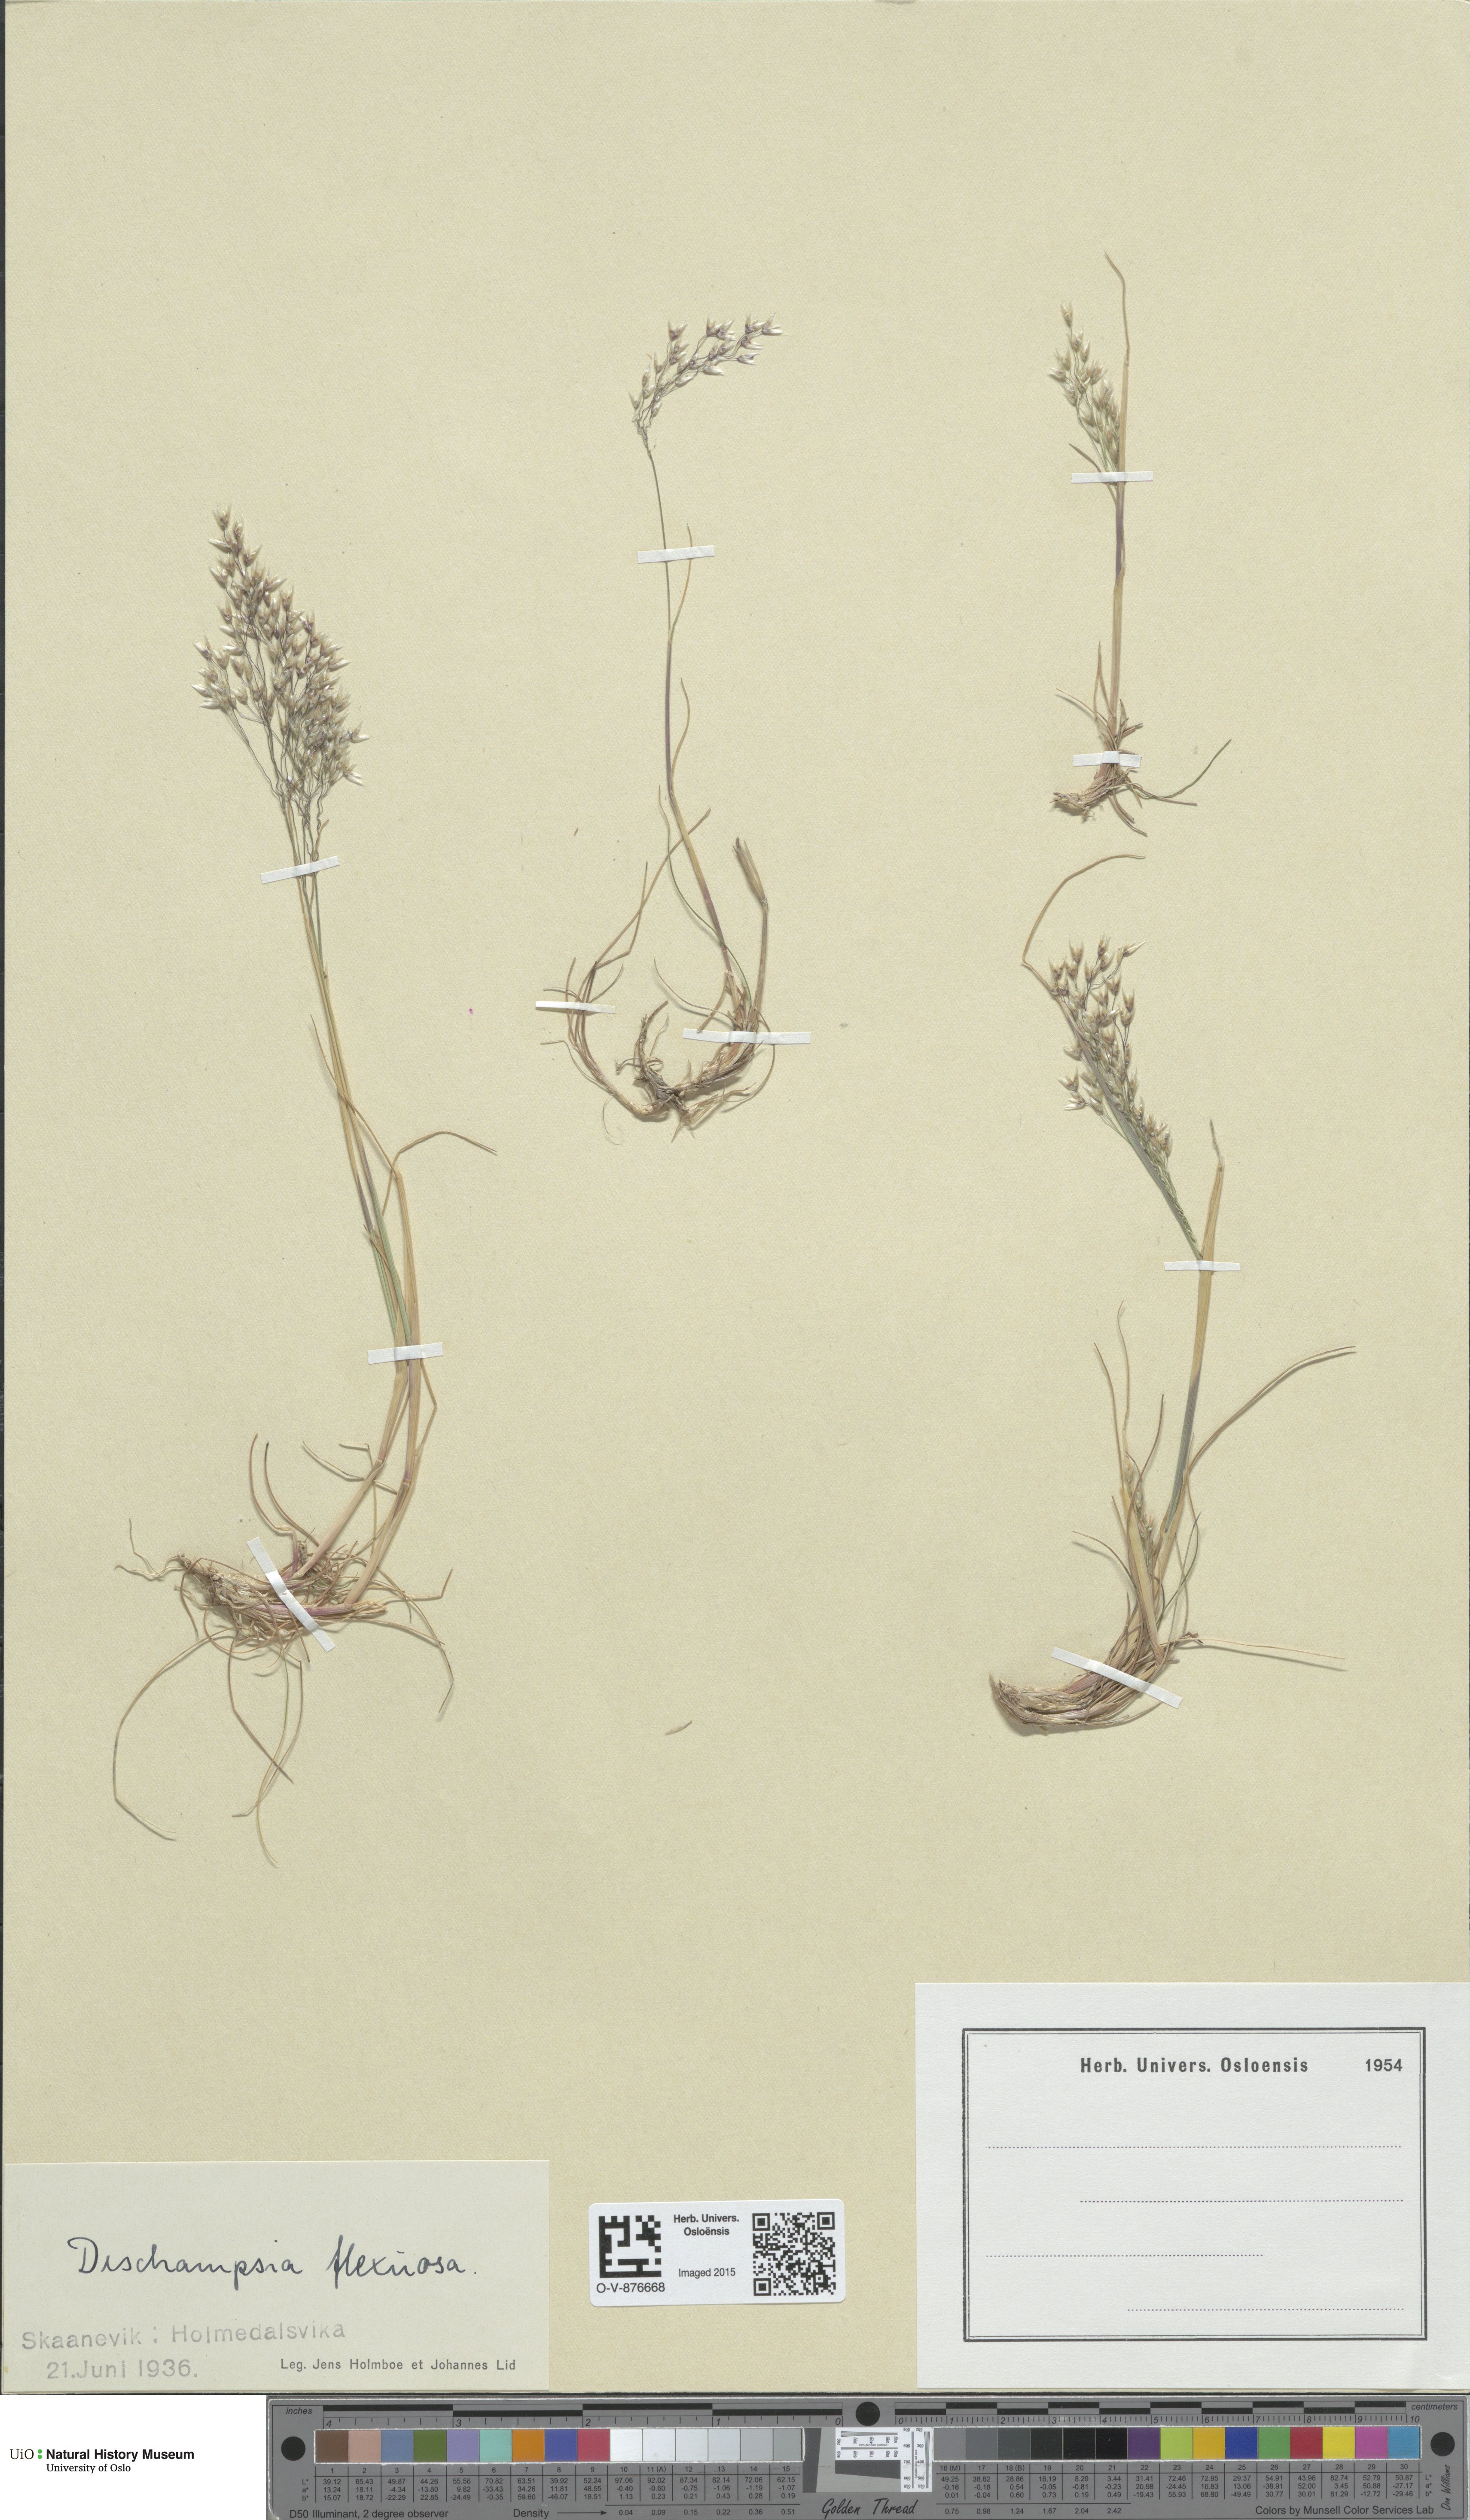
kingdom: Plantae
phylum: Tracheophyta
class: Liliopsida
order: Poales
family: Poaceae
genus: Avenella
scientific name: Avenella flexuosa
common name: Wavy hairgrass
